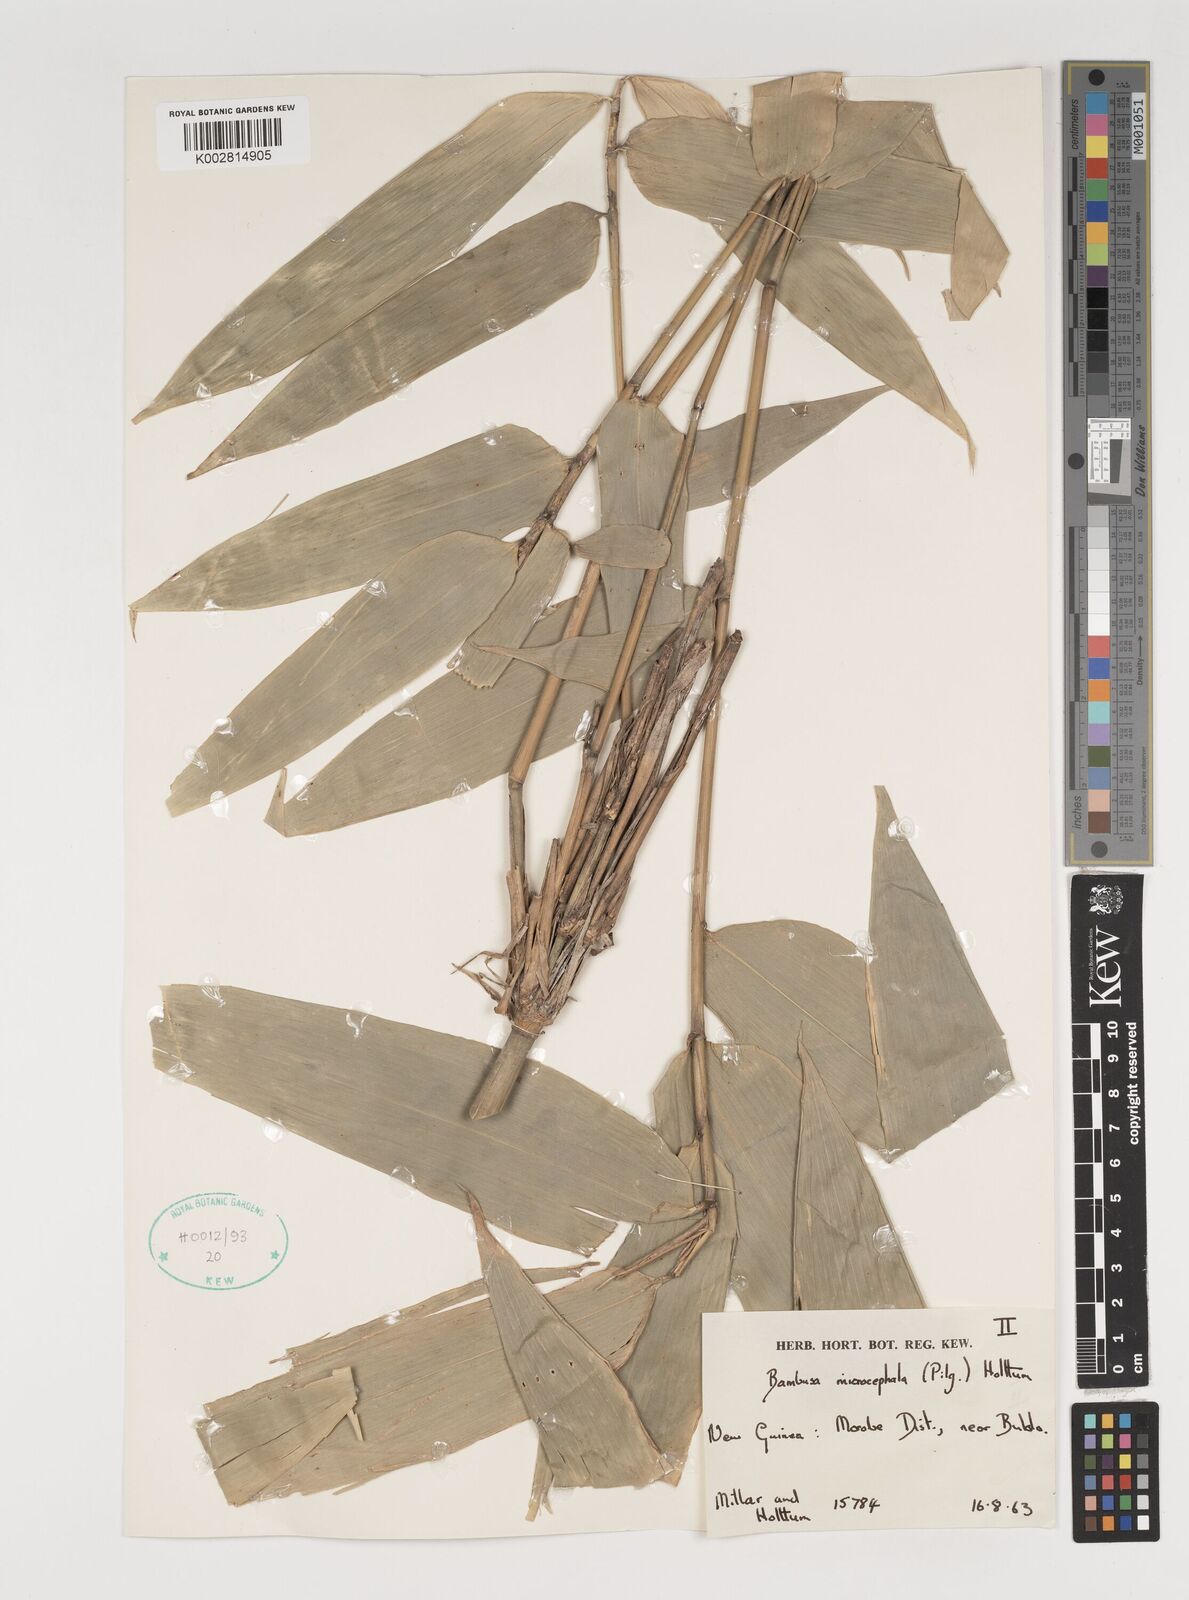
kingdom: Plantae
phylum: Tracheophyta
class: Liliopsida
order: Poales
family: Poaceae
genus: Fimbribambusa
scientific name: Fimbribambusa microcephala
